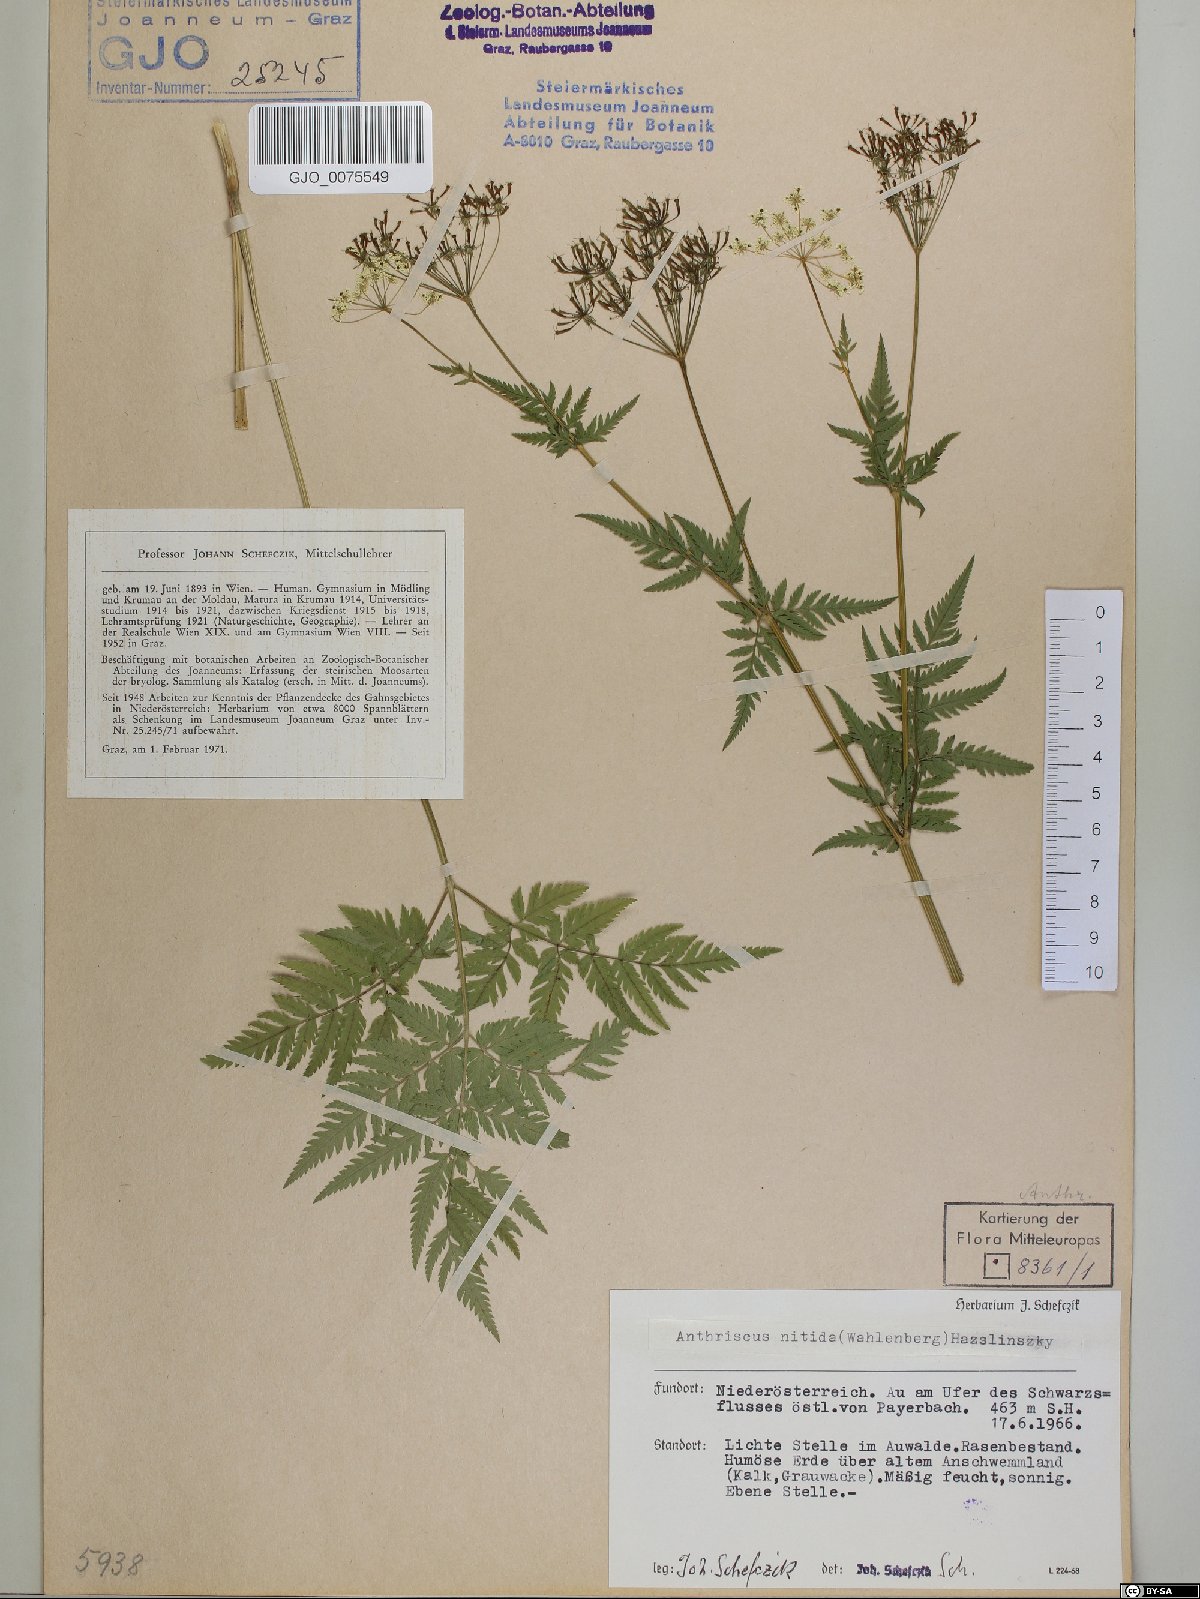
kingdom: Plantae
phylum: Tracheophyta
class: Magnoliopsida
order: Apiales
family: Apiaceae
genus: Anthriscus
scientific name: Anthriscus nitida
